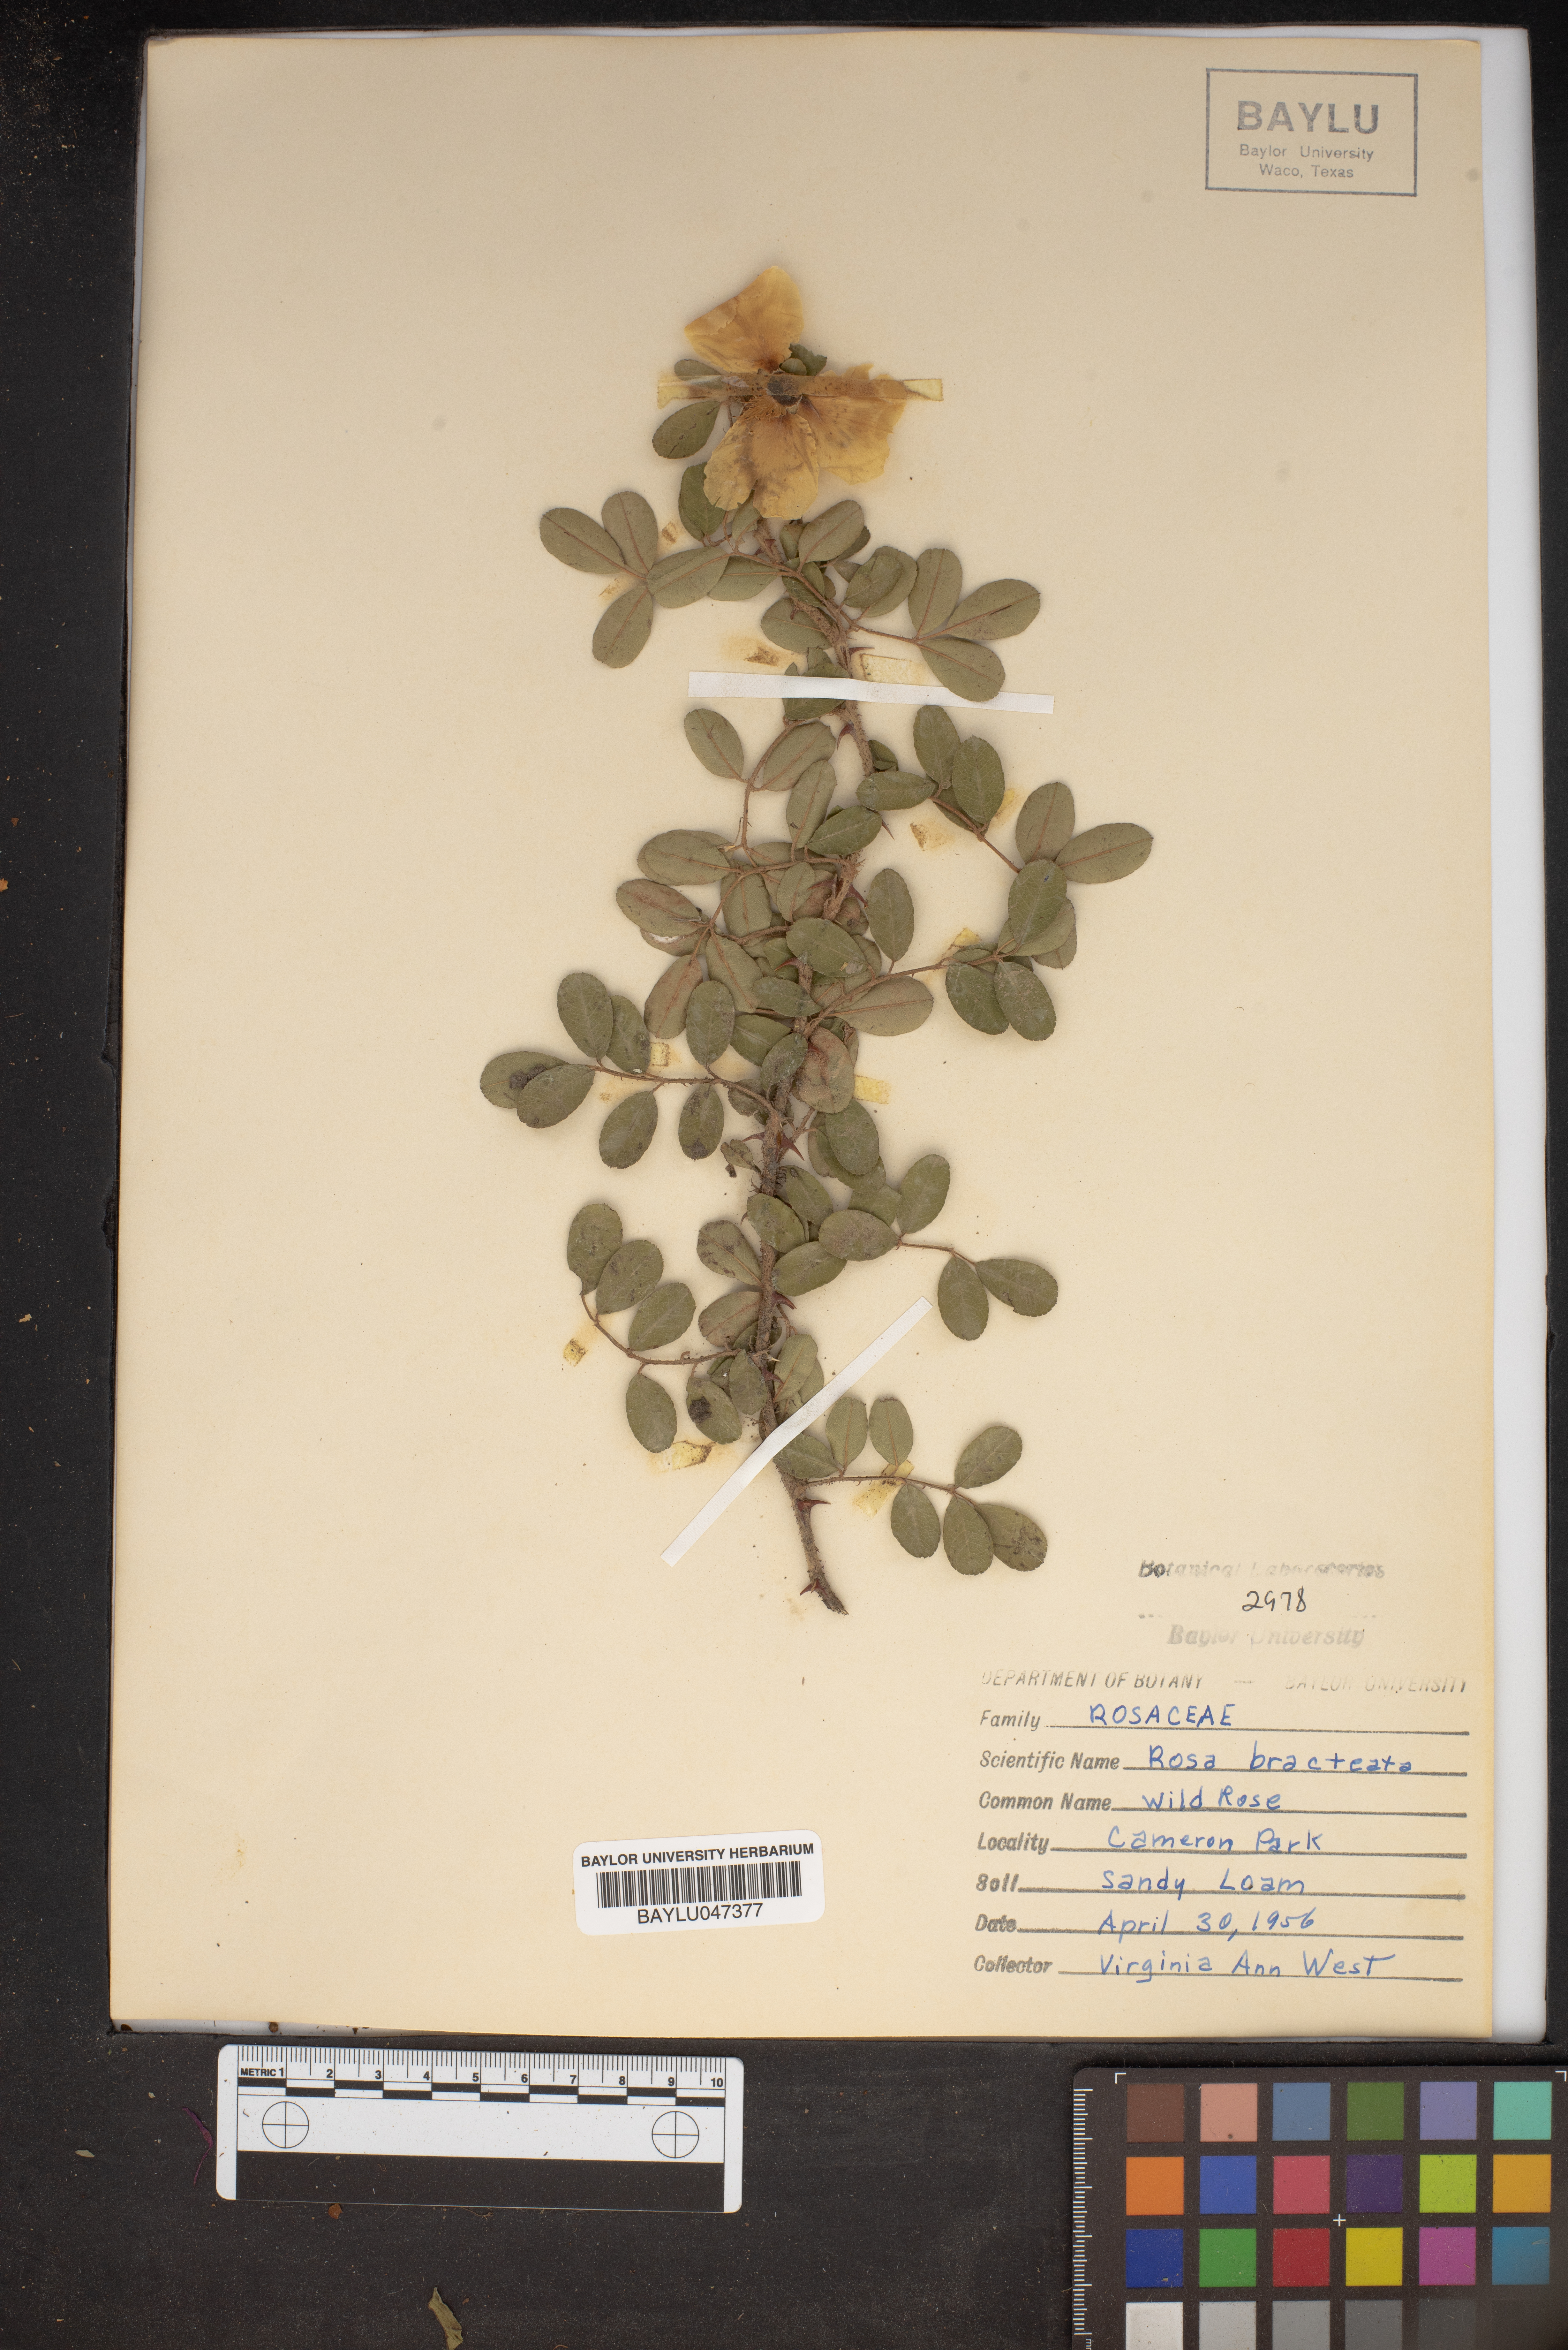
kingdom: Plantae
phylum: Tracheophyta
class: Magnoliopsida
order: Rosales
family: Rosaceae
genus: Rosa
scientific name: Rosa bracteata
